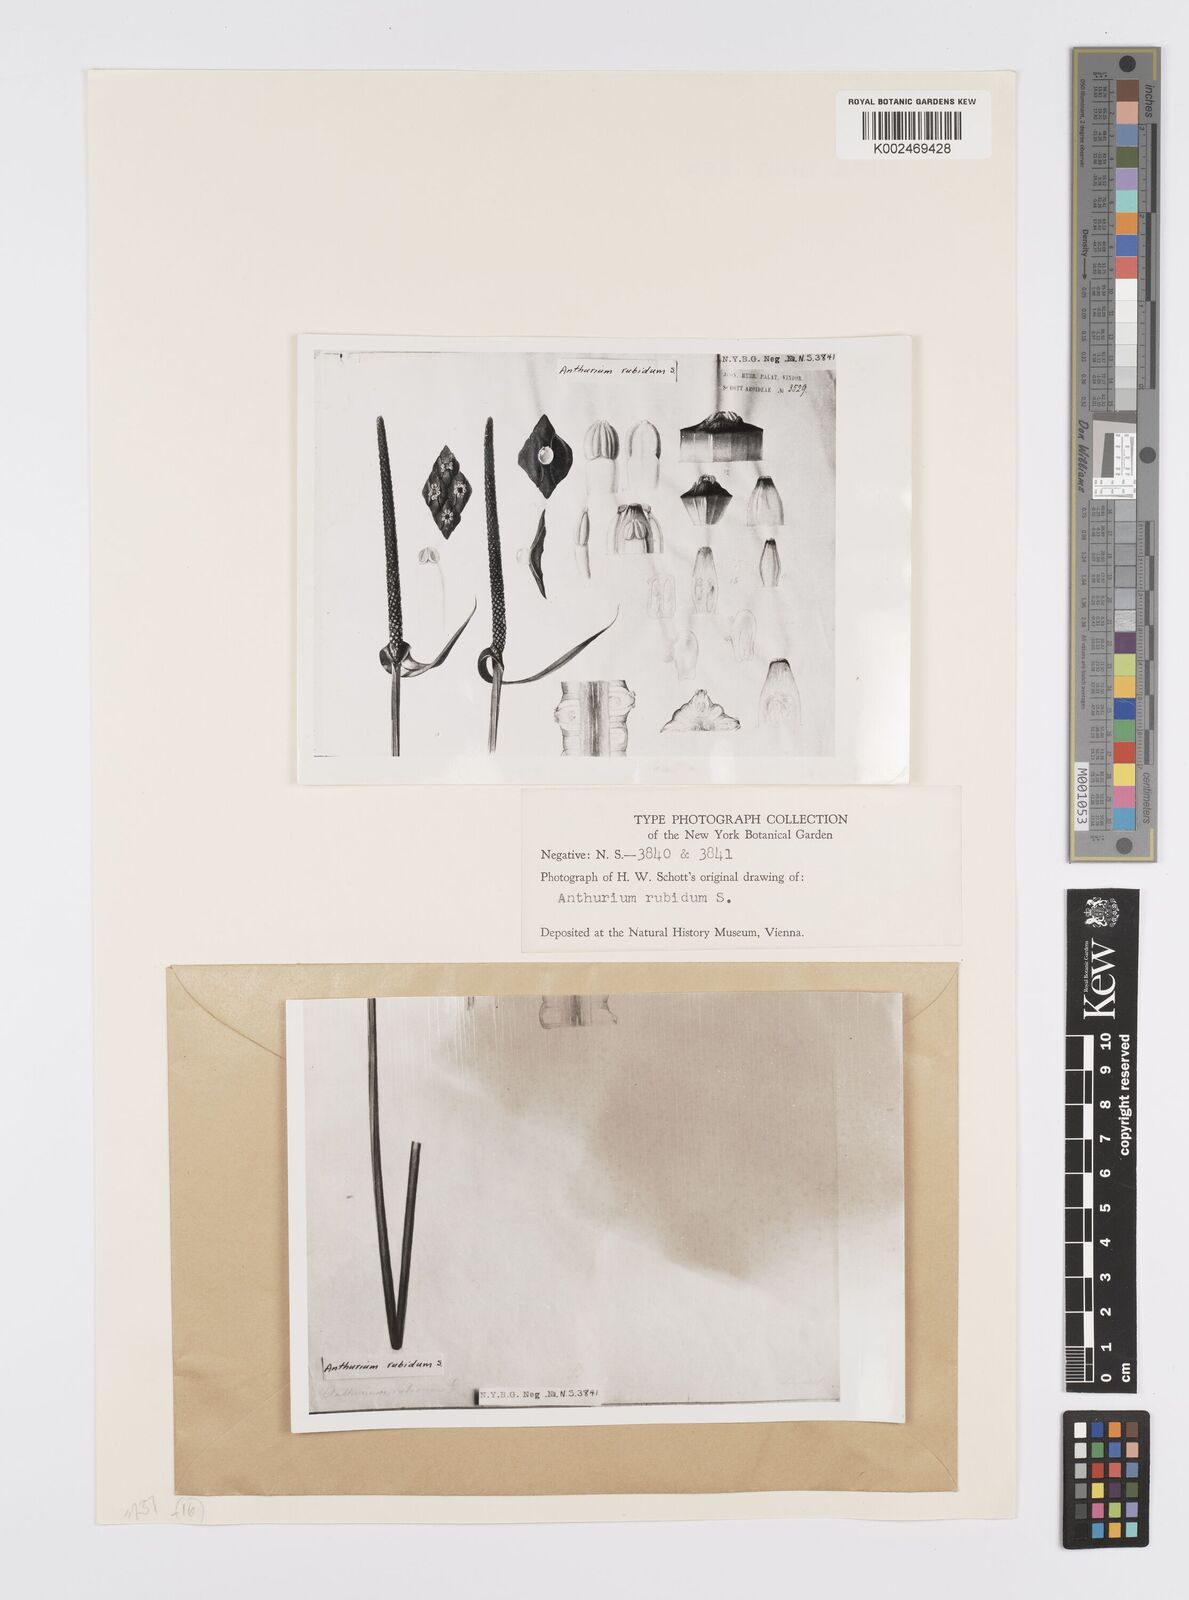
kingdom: Plantae
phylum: Tracheophyta
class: Liliopsida
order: Alismatales
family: Araceae
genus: Anthurium
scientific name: Anthurium harrisii
